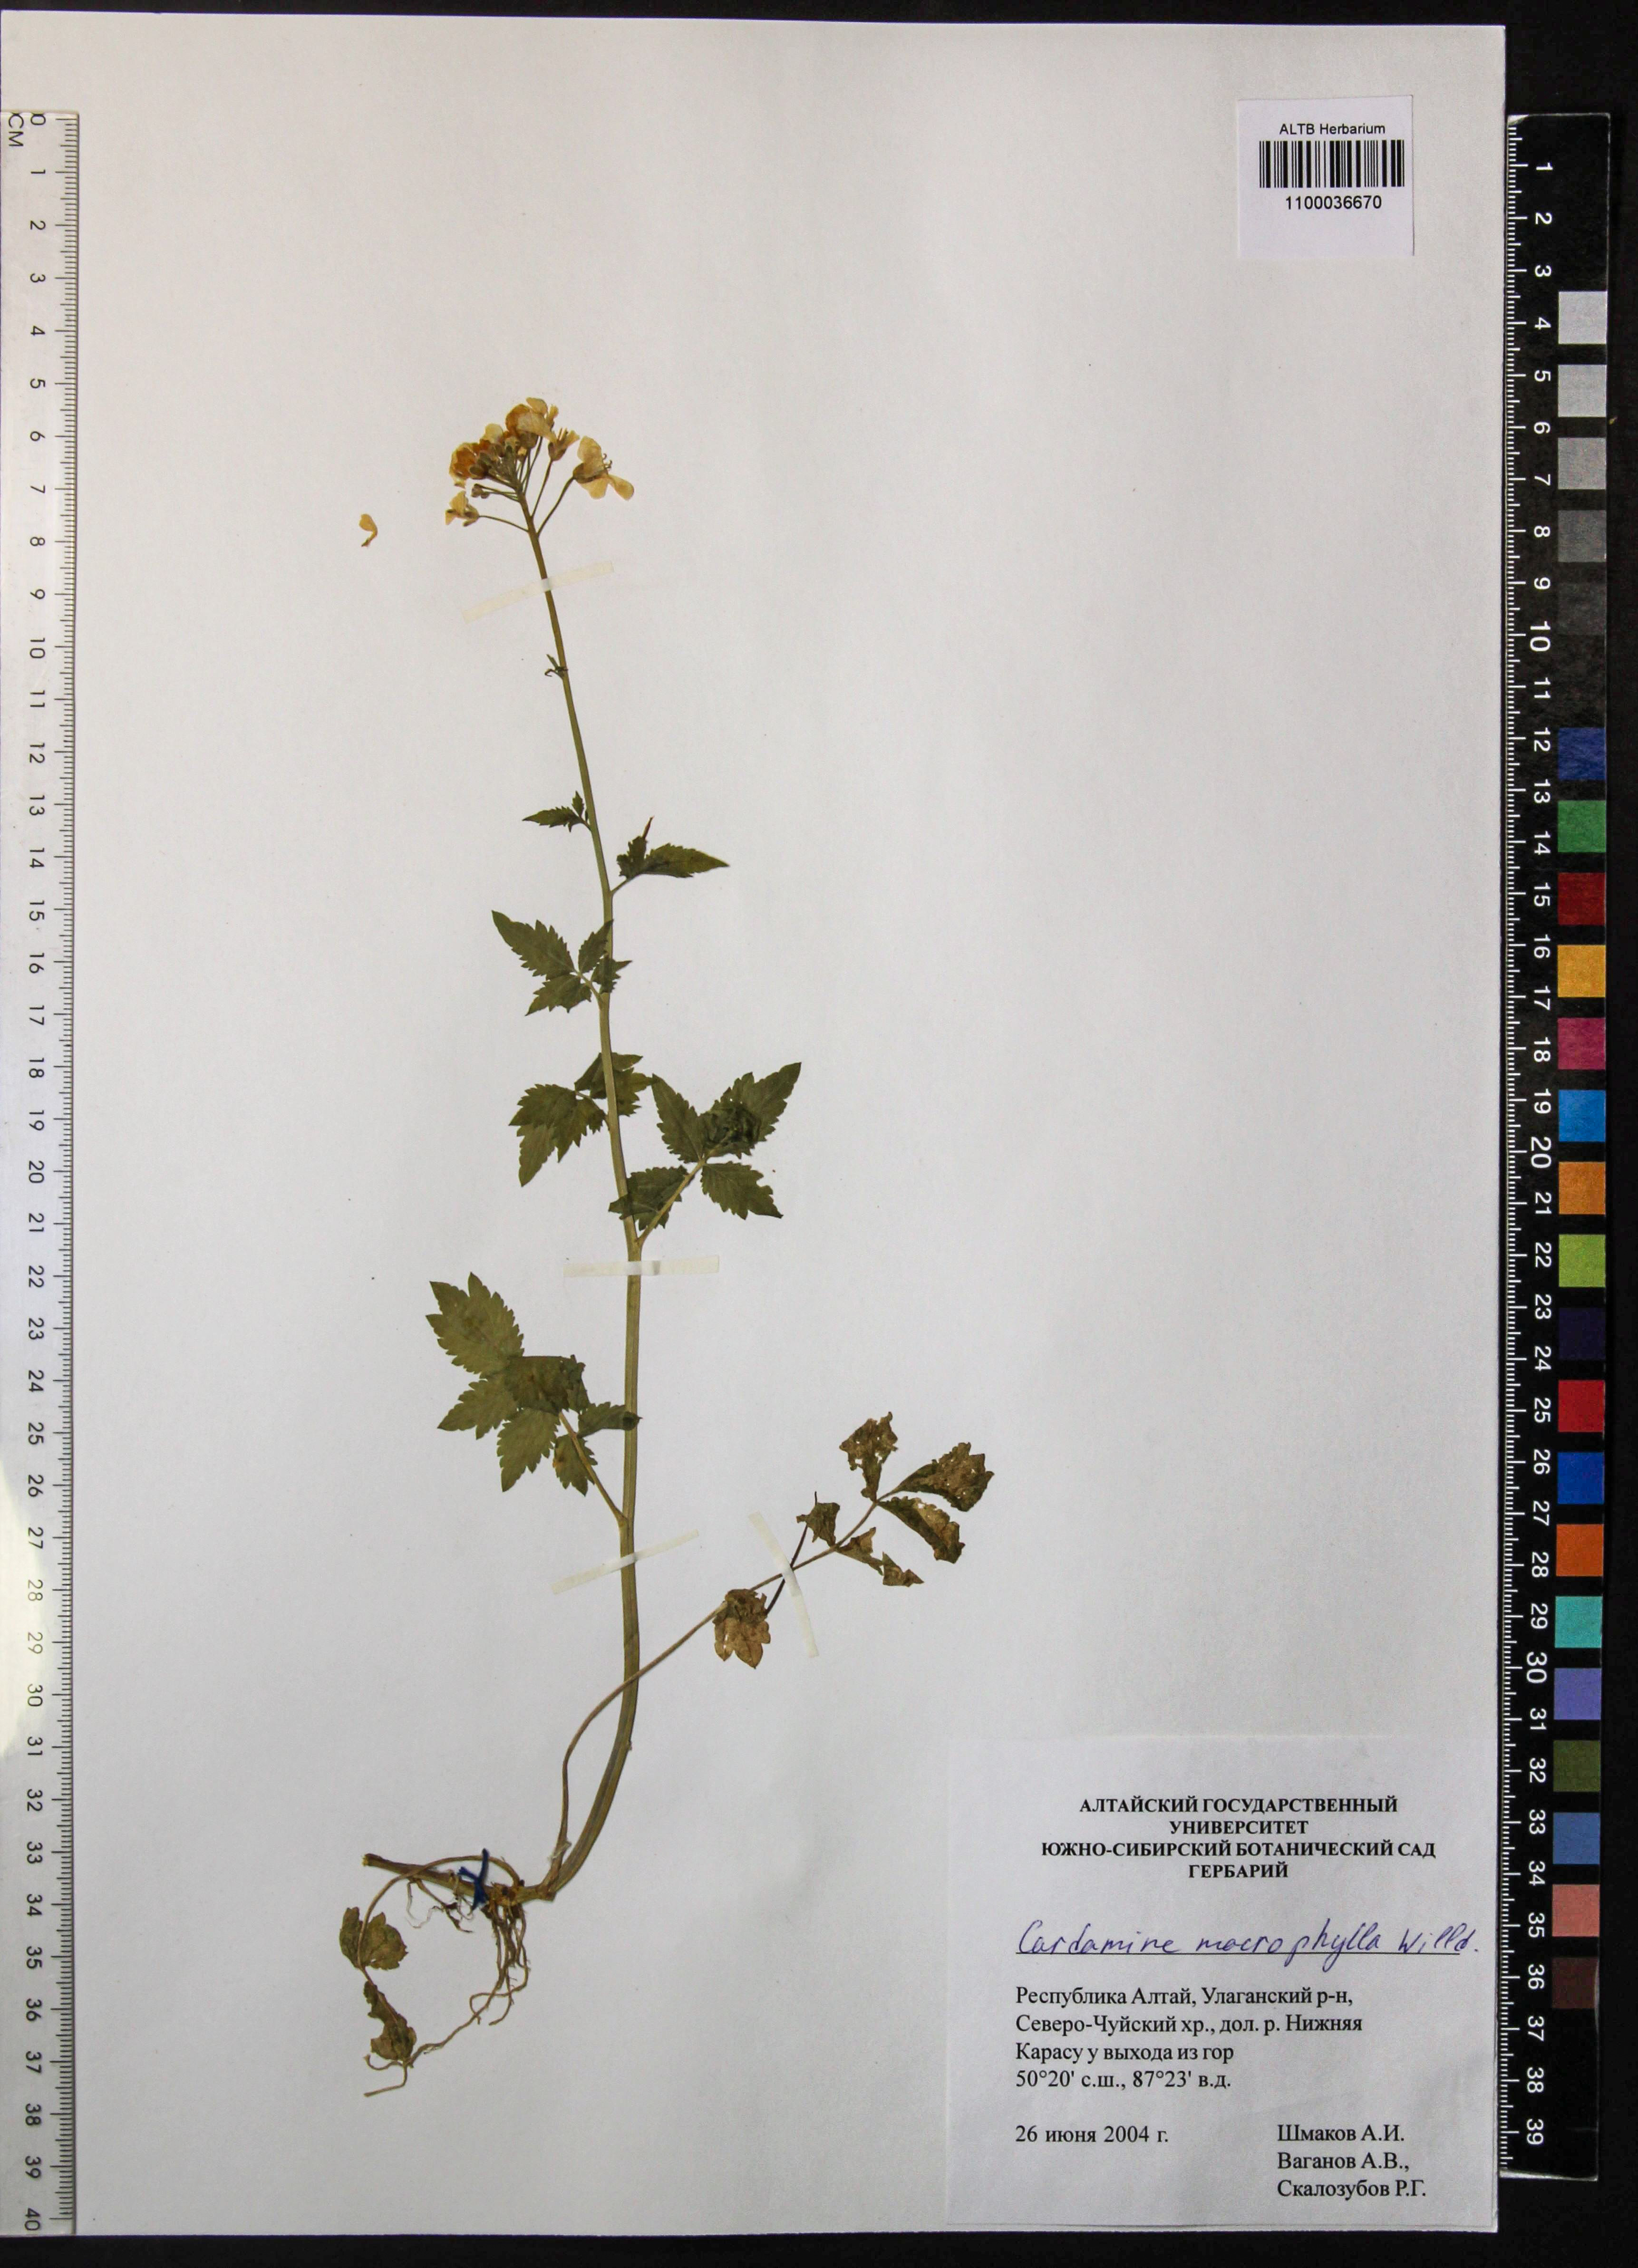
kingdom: Plantae
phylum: Tracheophyta
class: Magnoliopsida
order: Brassicales
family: Brassicaceae
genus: Cardamine
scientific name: Cardamine macrophylla
